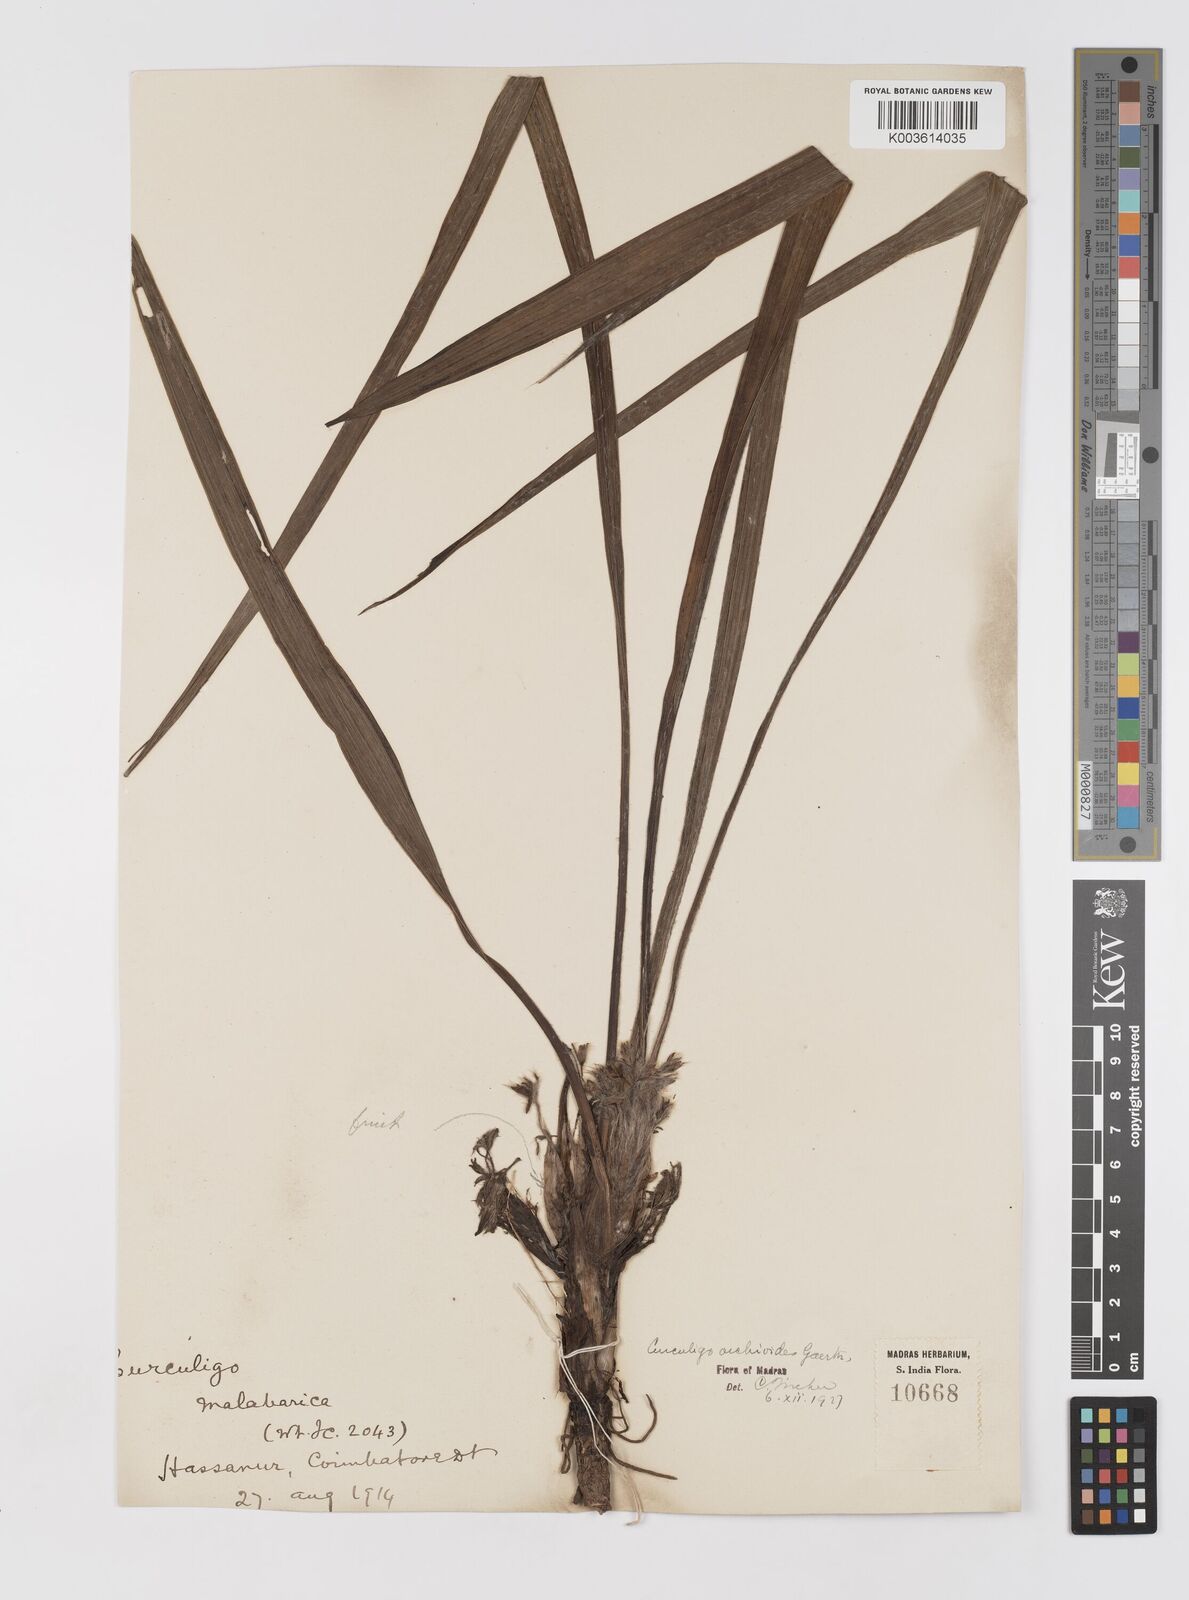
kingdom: Plantae
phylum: Tracheophyta
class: Liliopsida
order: Asparagales
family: Hypoxidaceae
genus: Curculigo
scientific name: Curculigo orchioides
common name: Golden eye-grass
